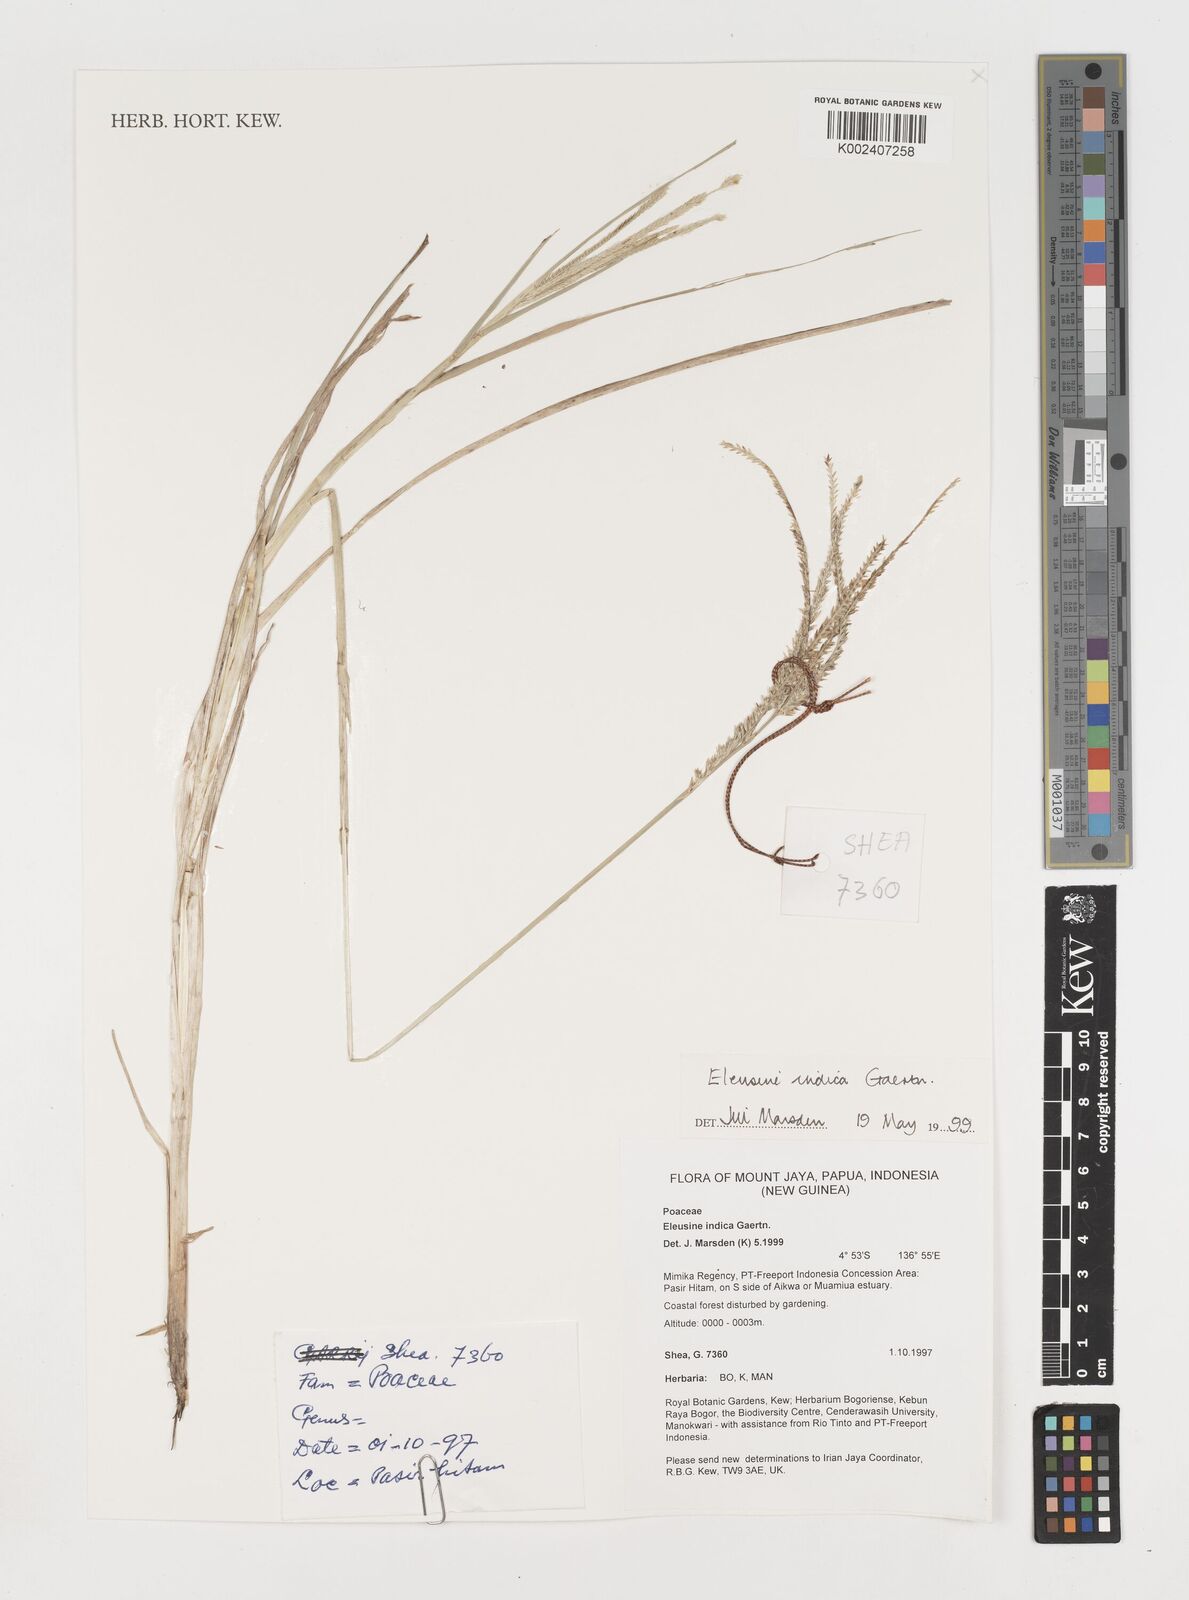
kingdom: Plantae
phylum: Tracheophyta
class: Liliopsida
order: Poales
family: Poaceae
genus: Eleusine
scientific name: Eleusine indica
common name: Yard-grass
